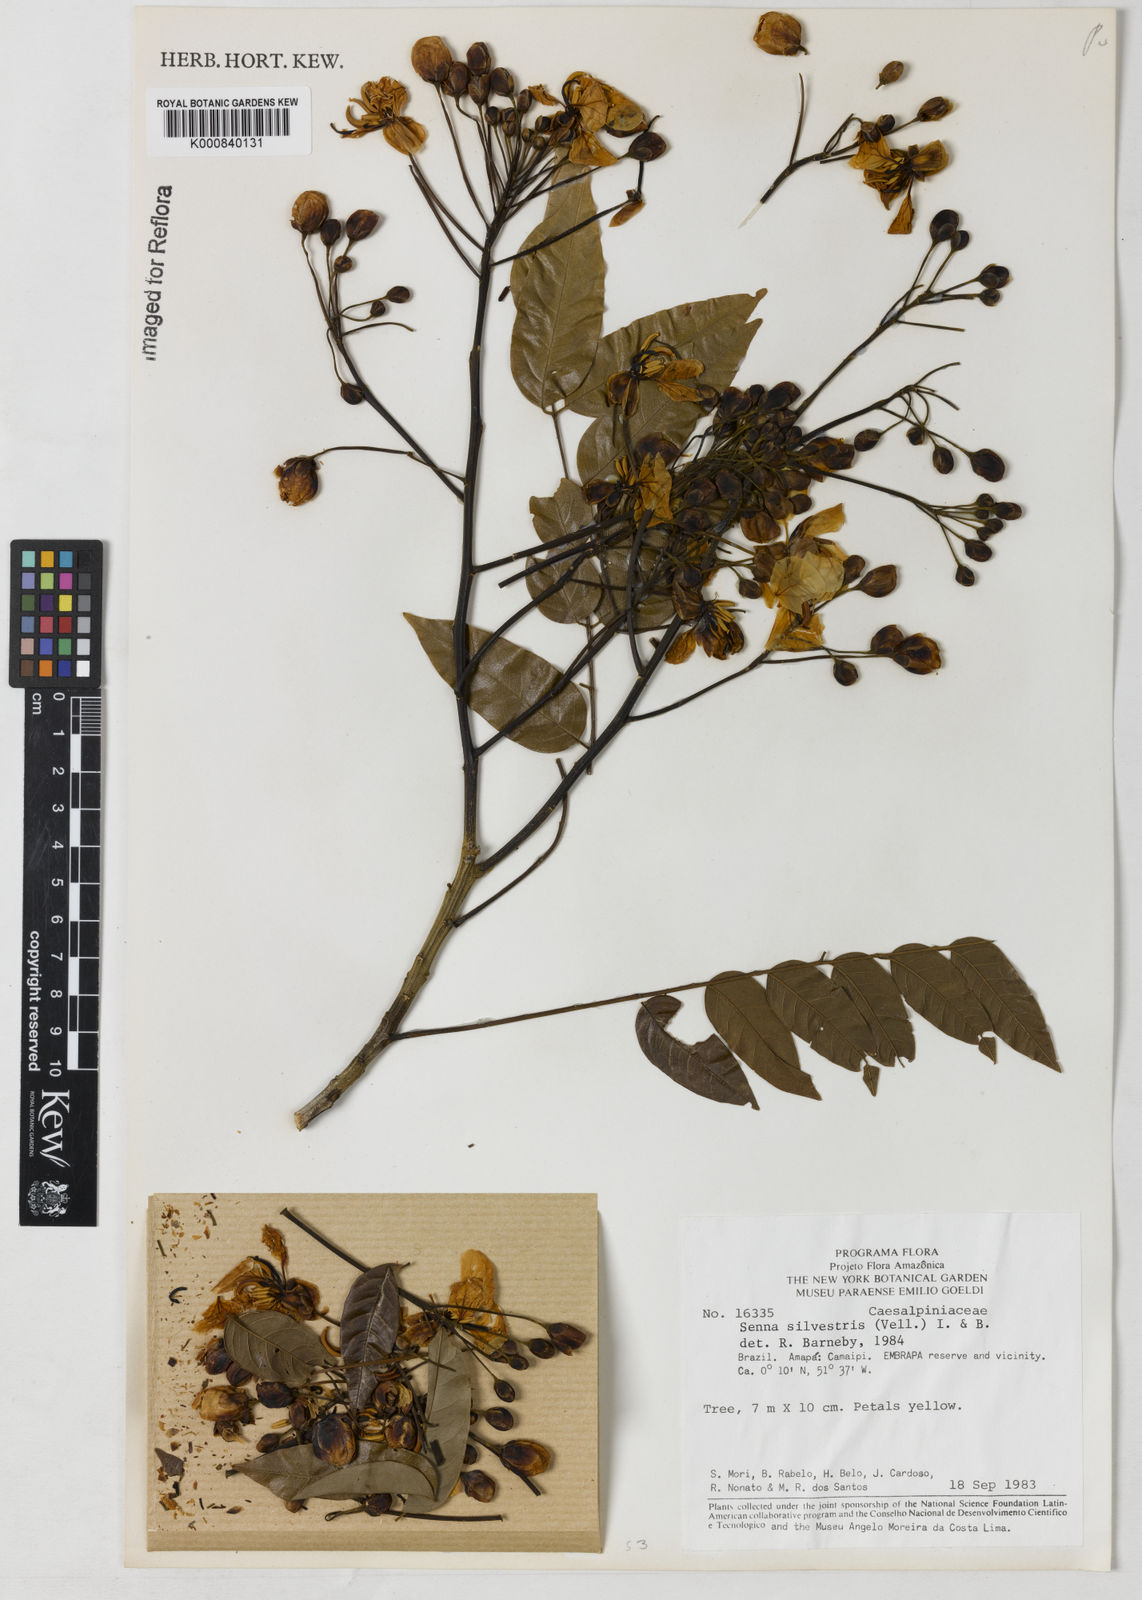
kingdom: Plantae
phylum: Tracheophyta
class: Magnoliopsida
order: Fabales
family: Fabaceae
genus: Senna
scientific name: Senna silvestris
